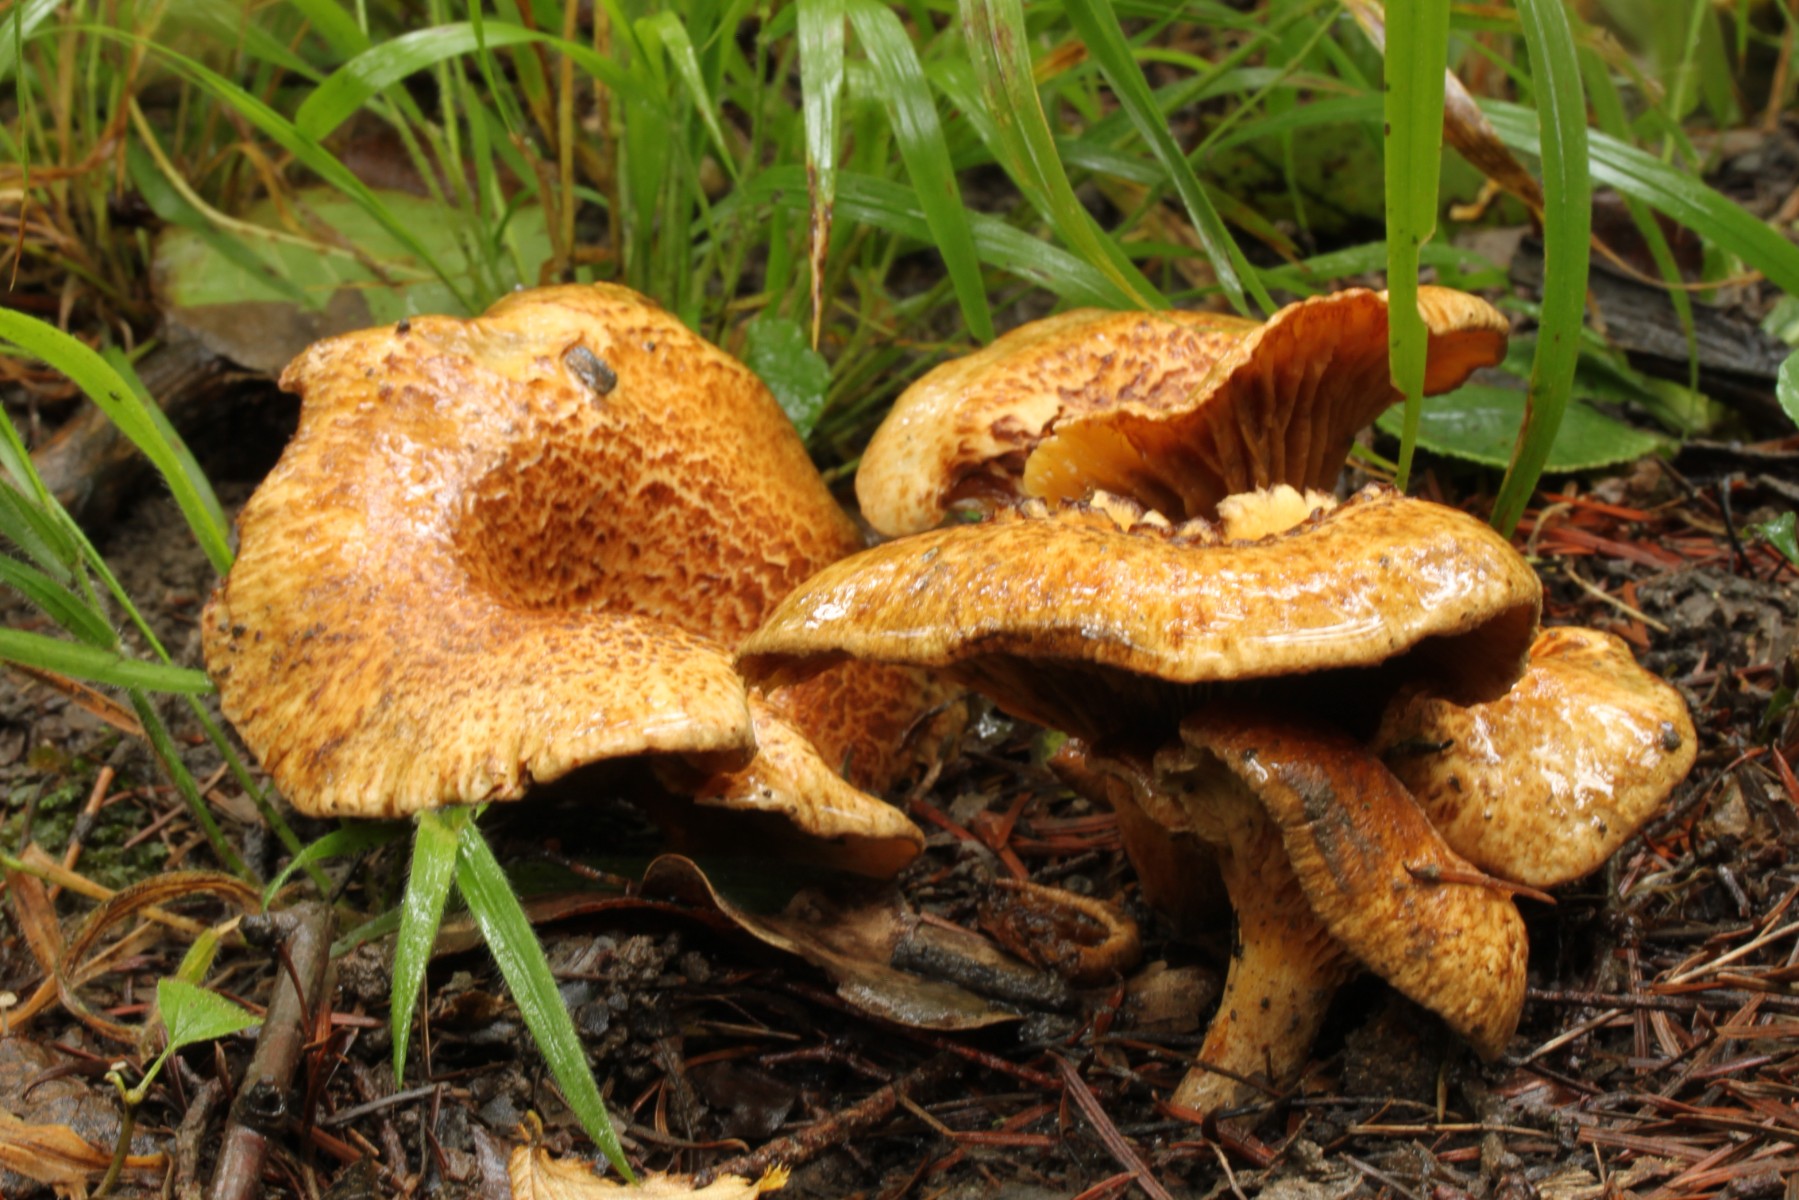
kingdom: Fungi
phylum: Basidiomycota
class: Agaricomycetes
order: Boletales
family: Paxillaceae
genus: Paxillus
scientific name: Paxillus rubicundulus
